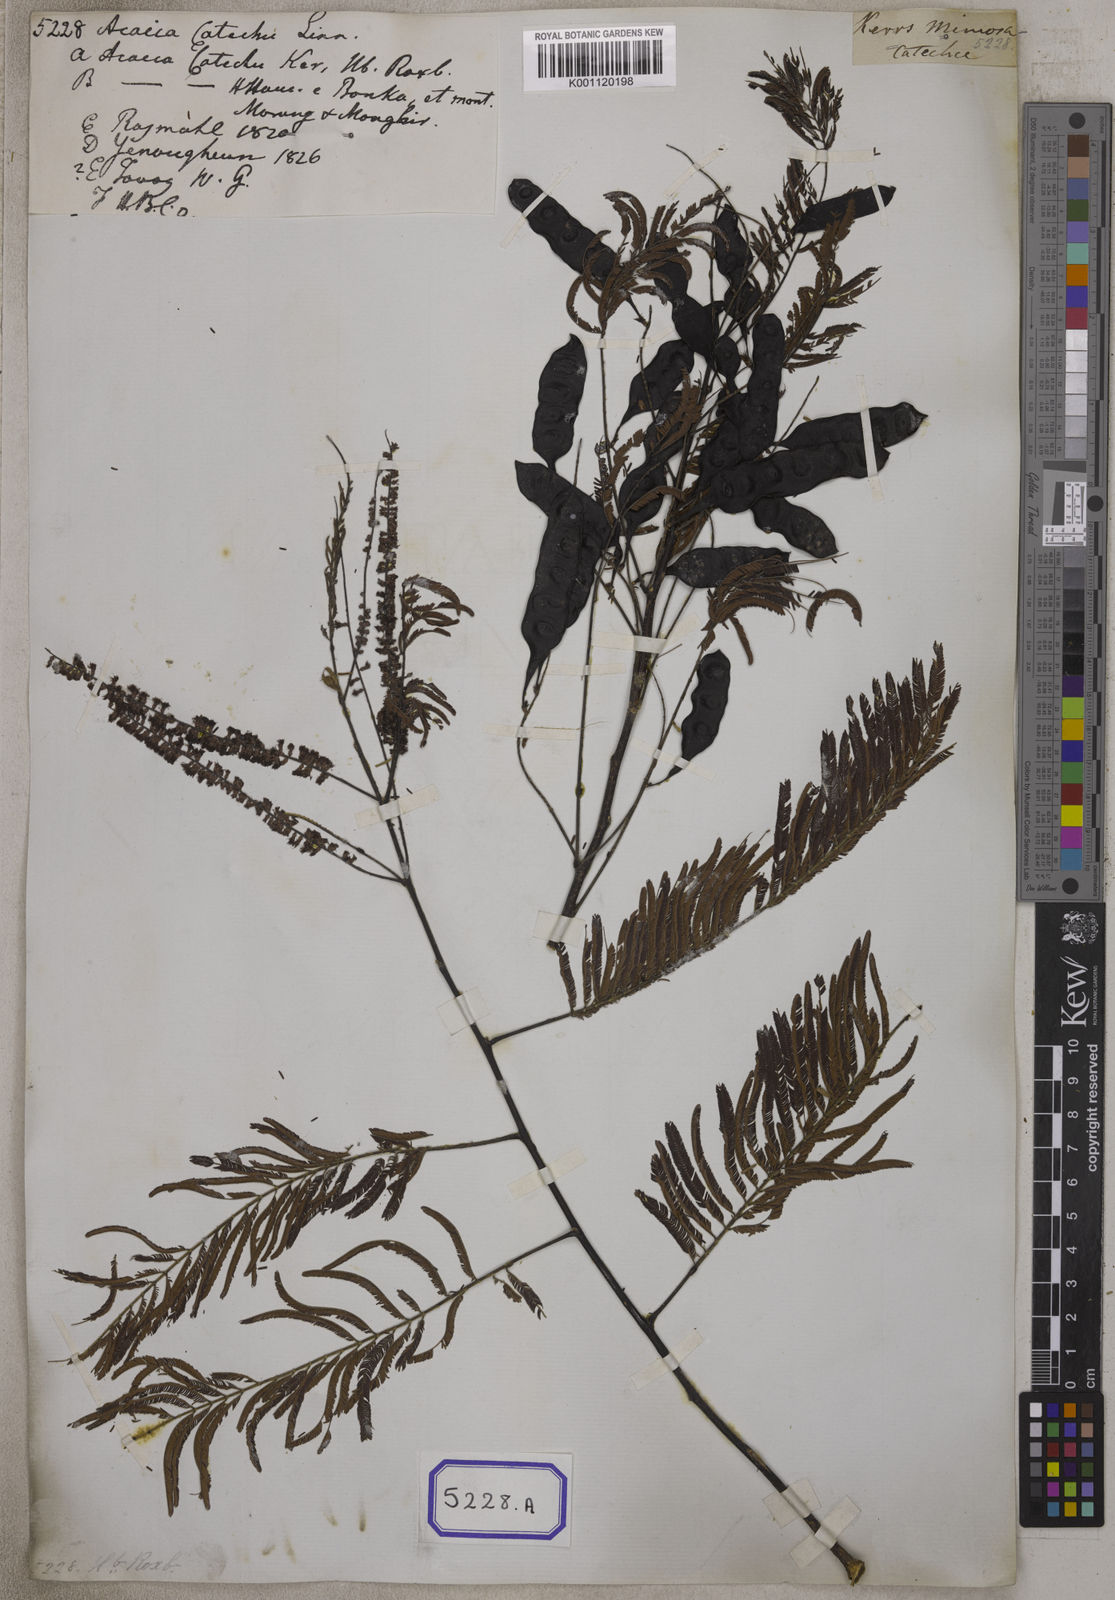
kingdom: Plantae
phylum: Tracheophyta
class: Magnoliopsida
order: Fabales
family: Fabaceae
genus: Senegalia
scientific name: Senegalia catechu
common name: Black cutch
